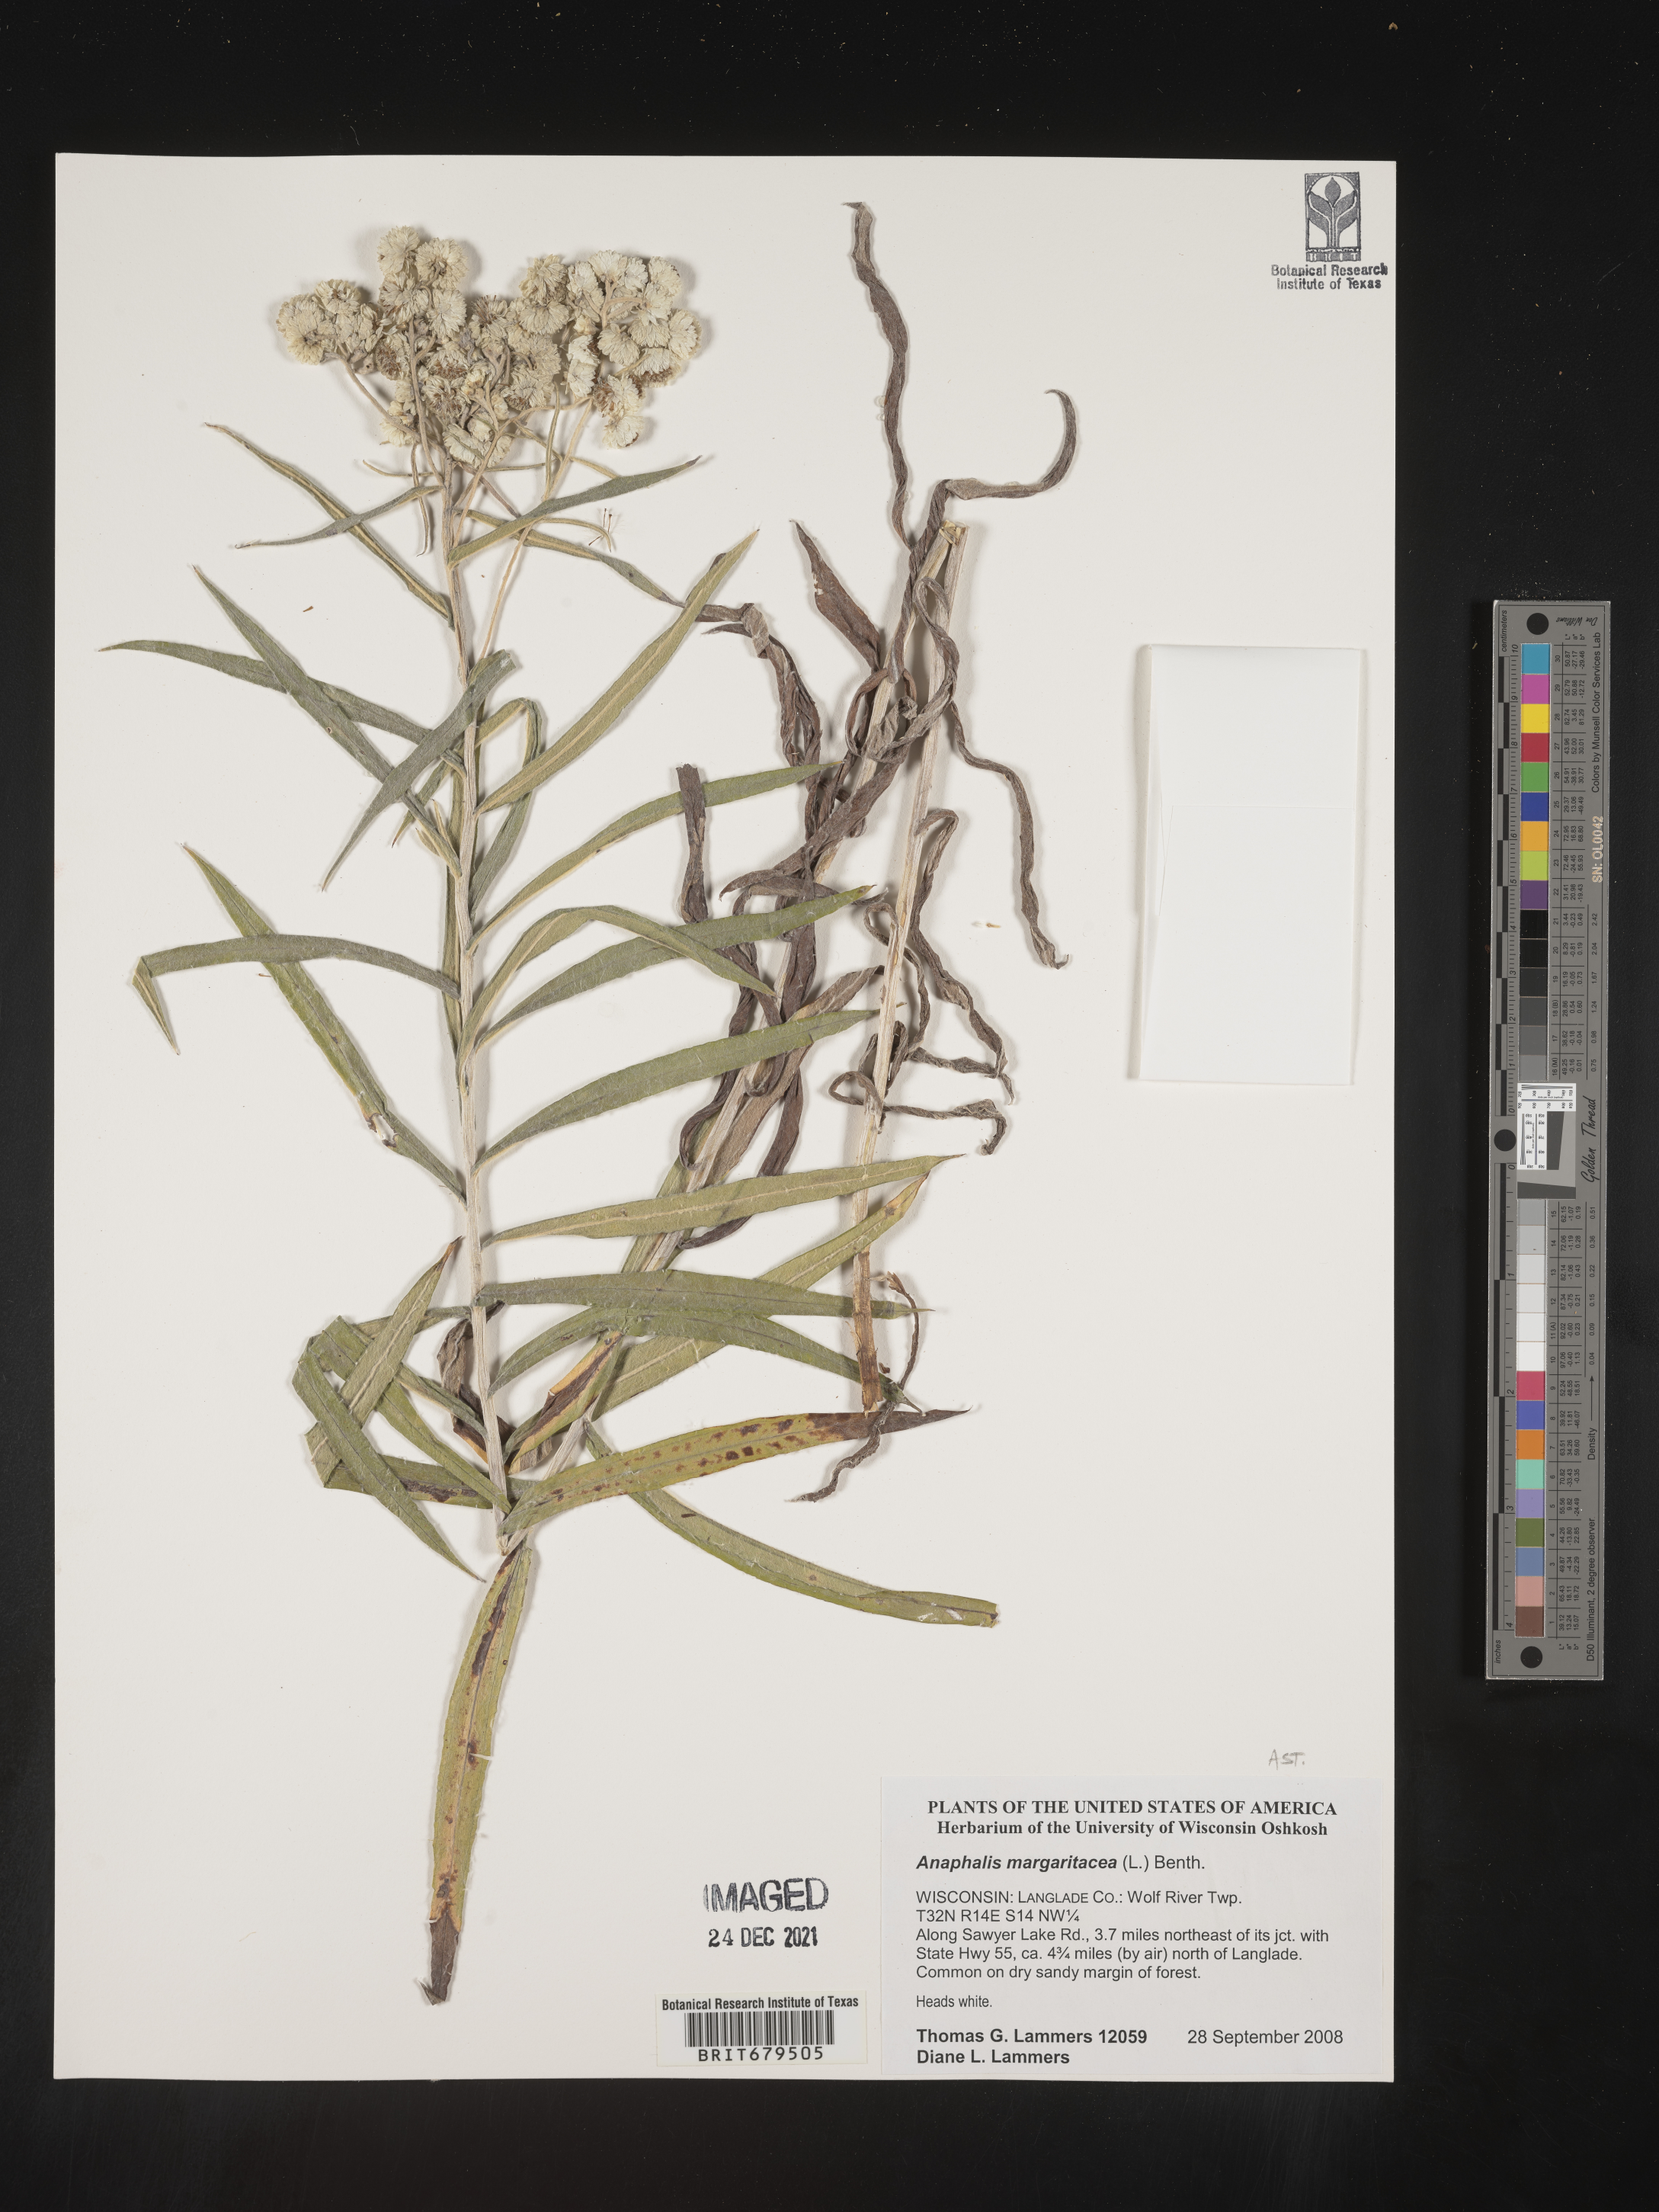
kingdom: Plantae
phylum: Tracheophyta
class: Magnoliopsida
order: Asterales
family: Asteraceae
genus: Anaphalis
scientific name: Anaphalis margaritacea
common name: Pearly everlasting
